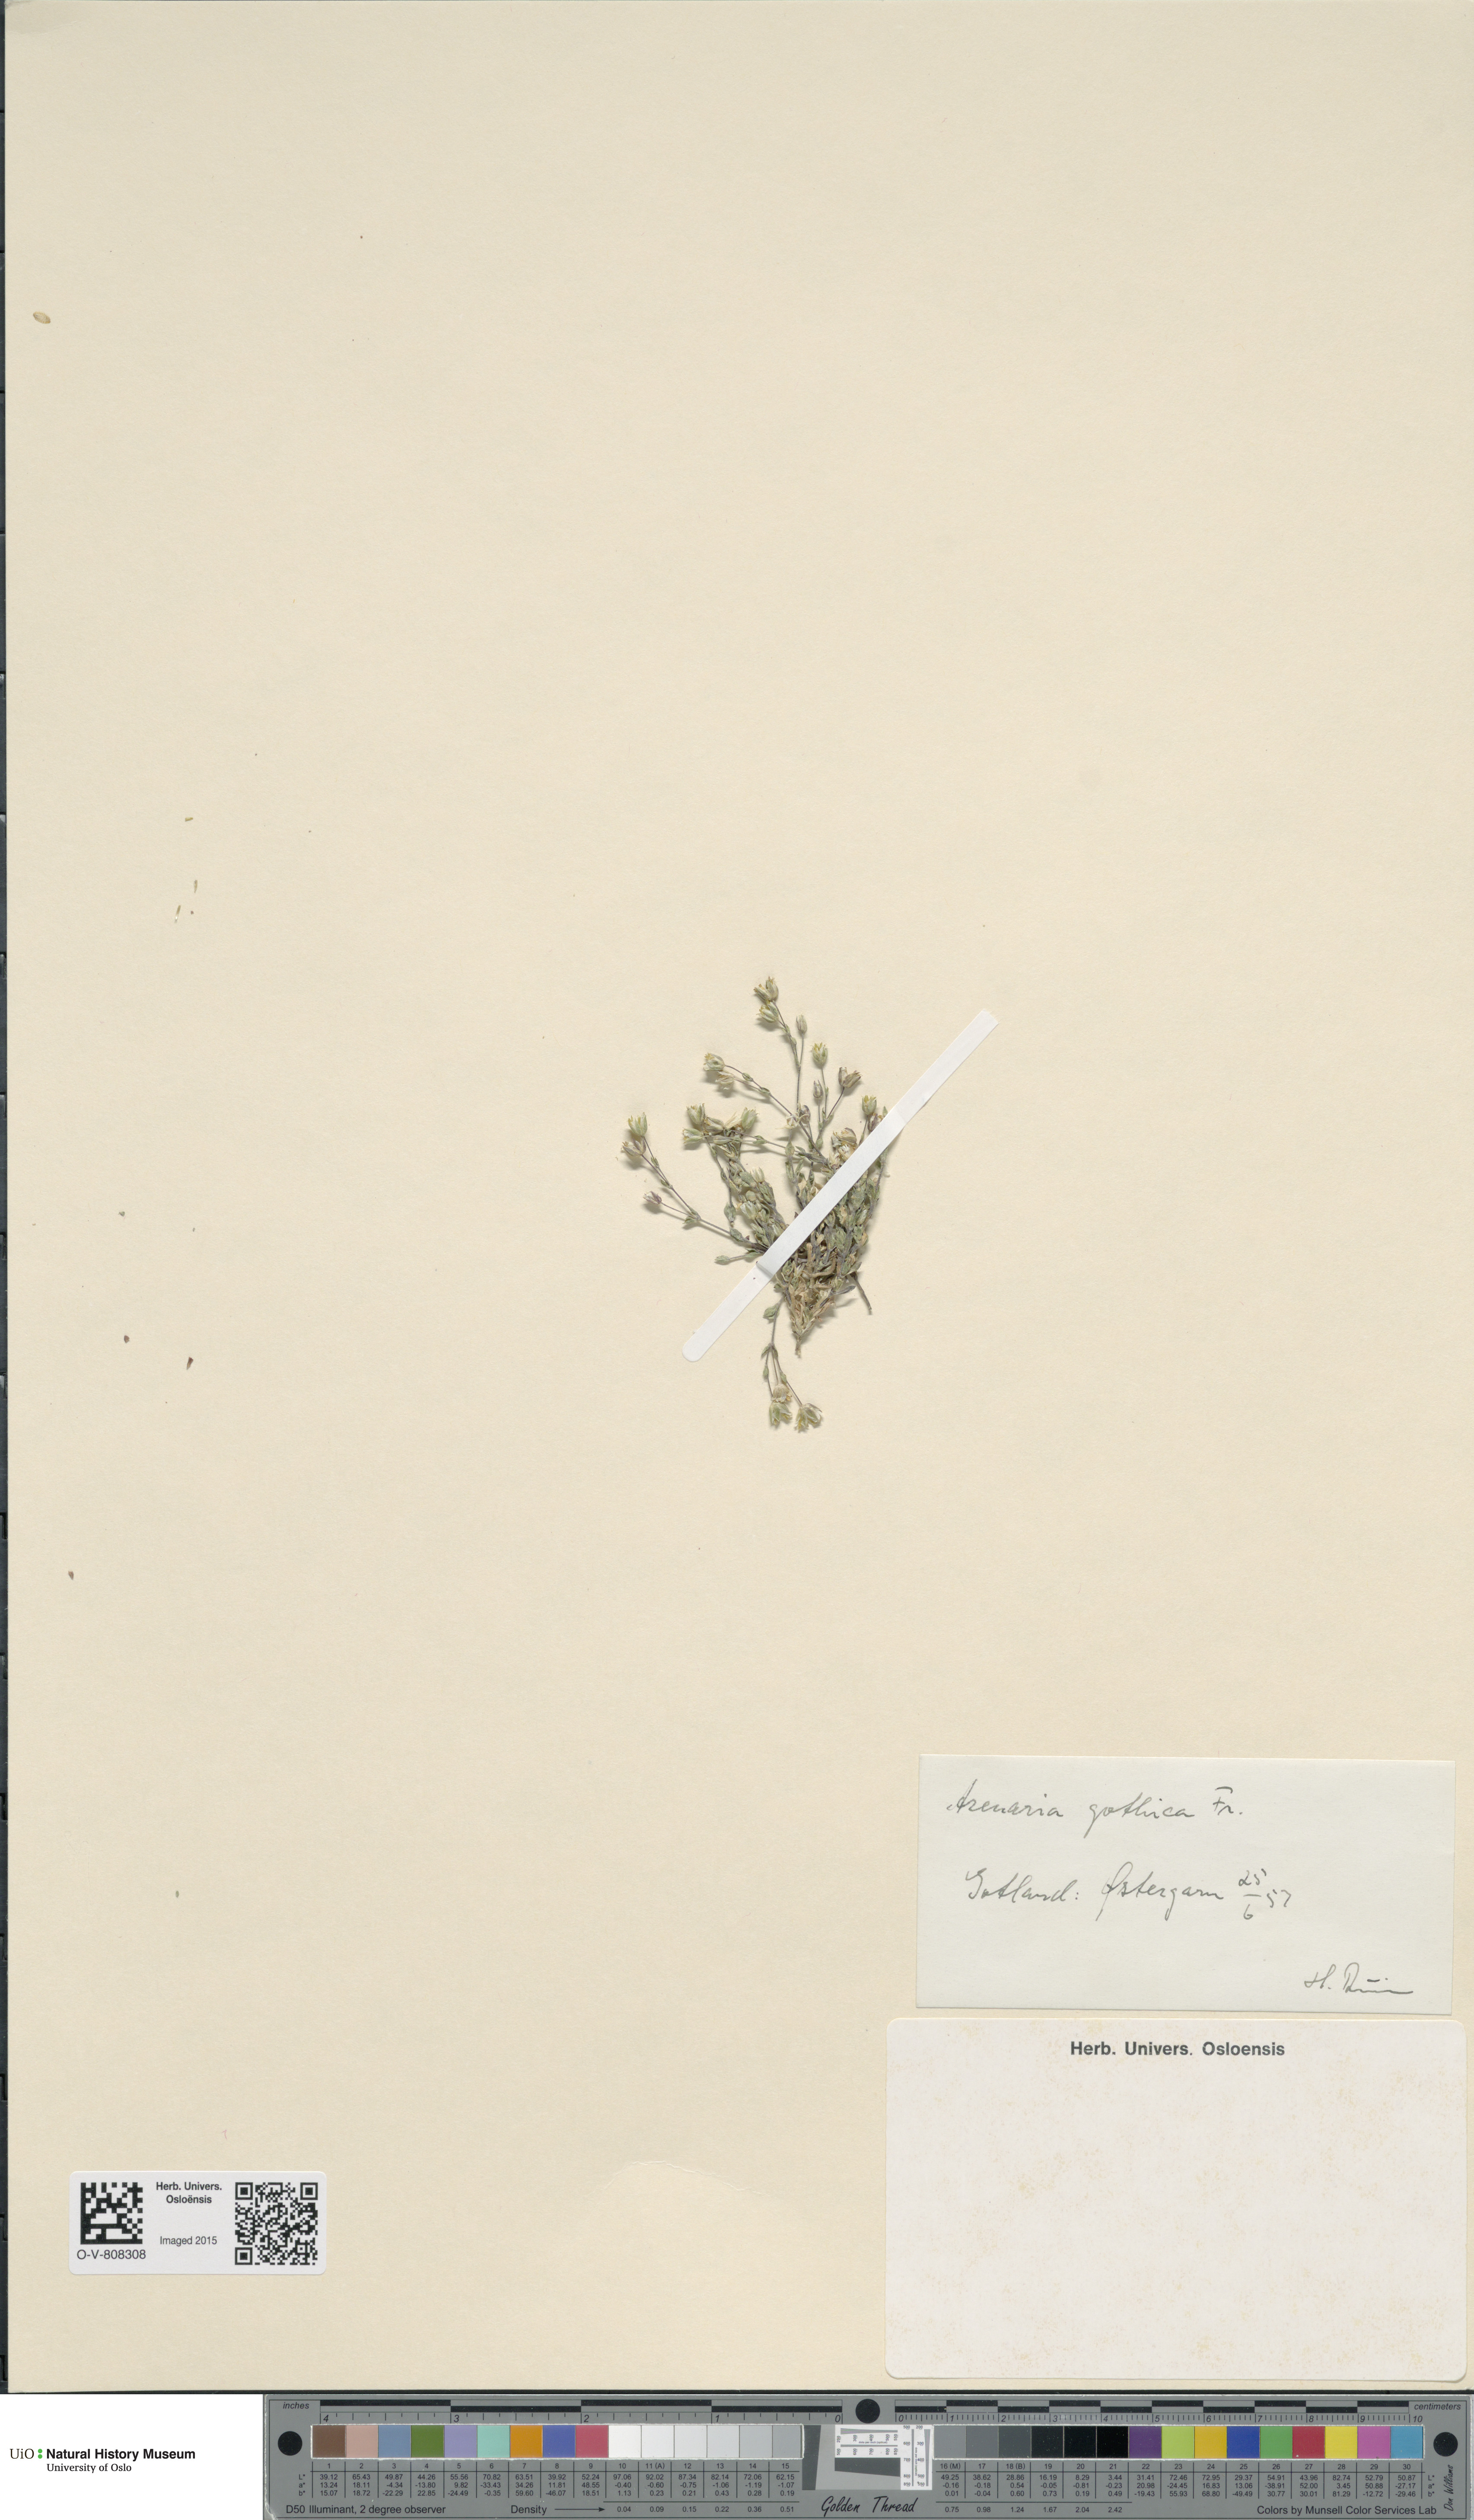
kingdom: Plantae
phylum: Tracheophyta
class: Magnoliopsida
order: Caryophyllales
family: Caryophyllaceae
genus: Arenaria
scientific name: Arenaria gothica
